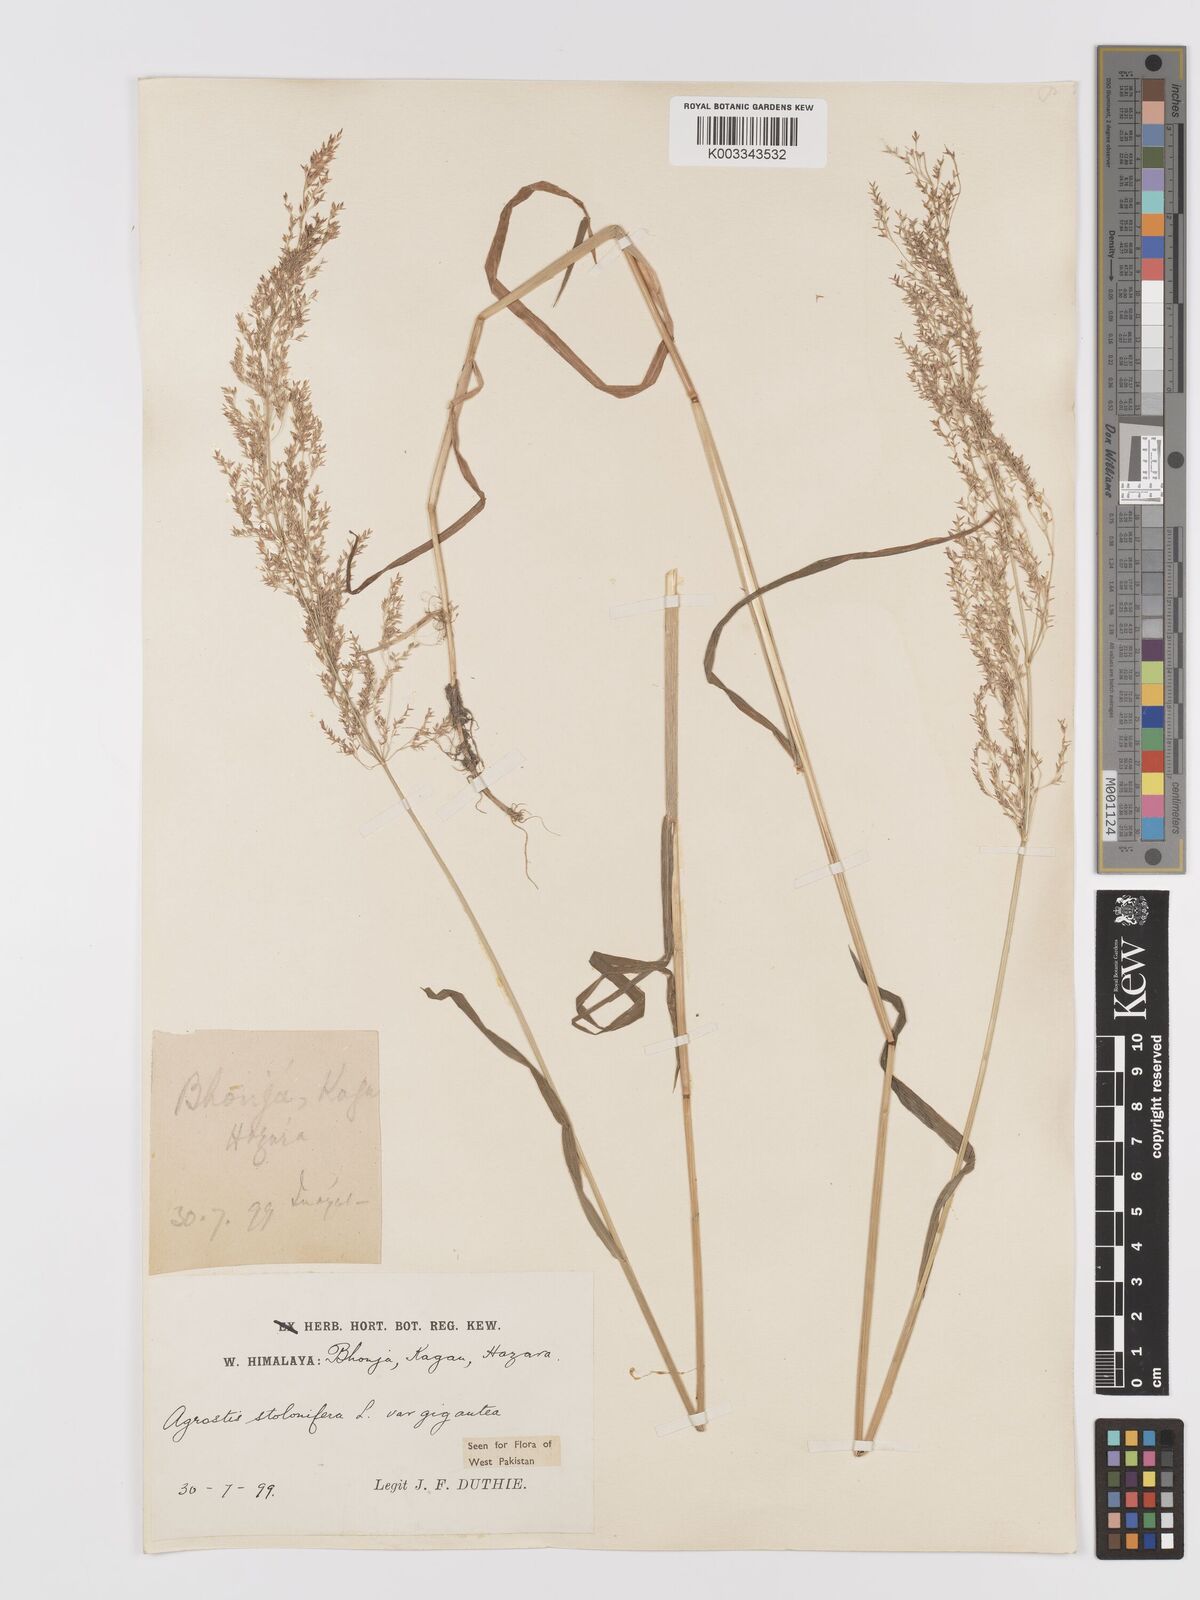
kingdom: Plantae
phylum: Tracheophyta
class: Liliopsida
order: Poales
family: Poaceae
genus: Agrostis
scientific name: Agrostis gigantea
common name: Black bent
